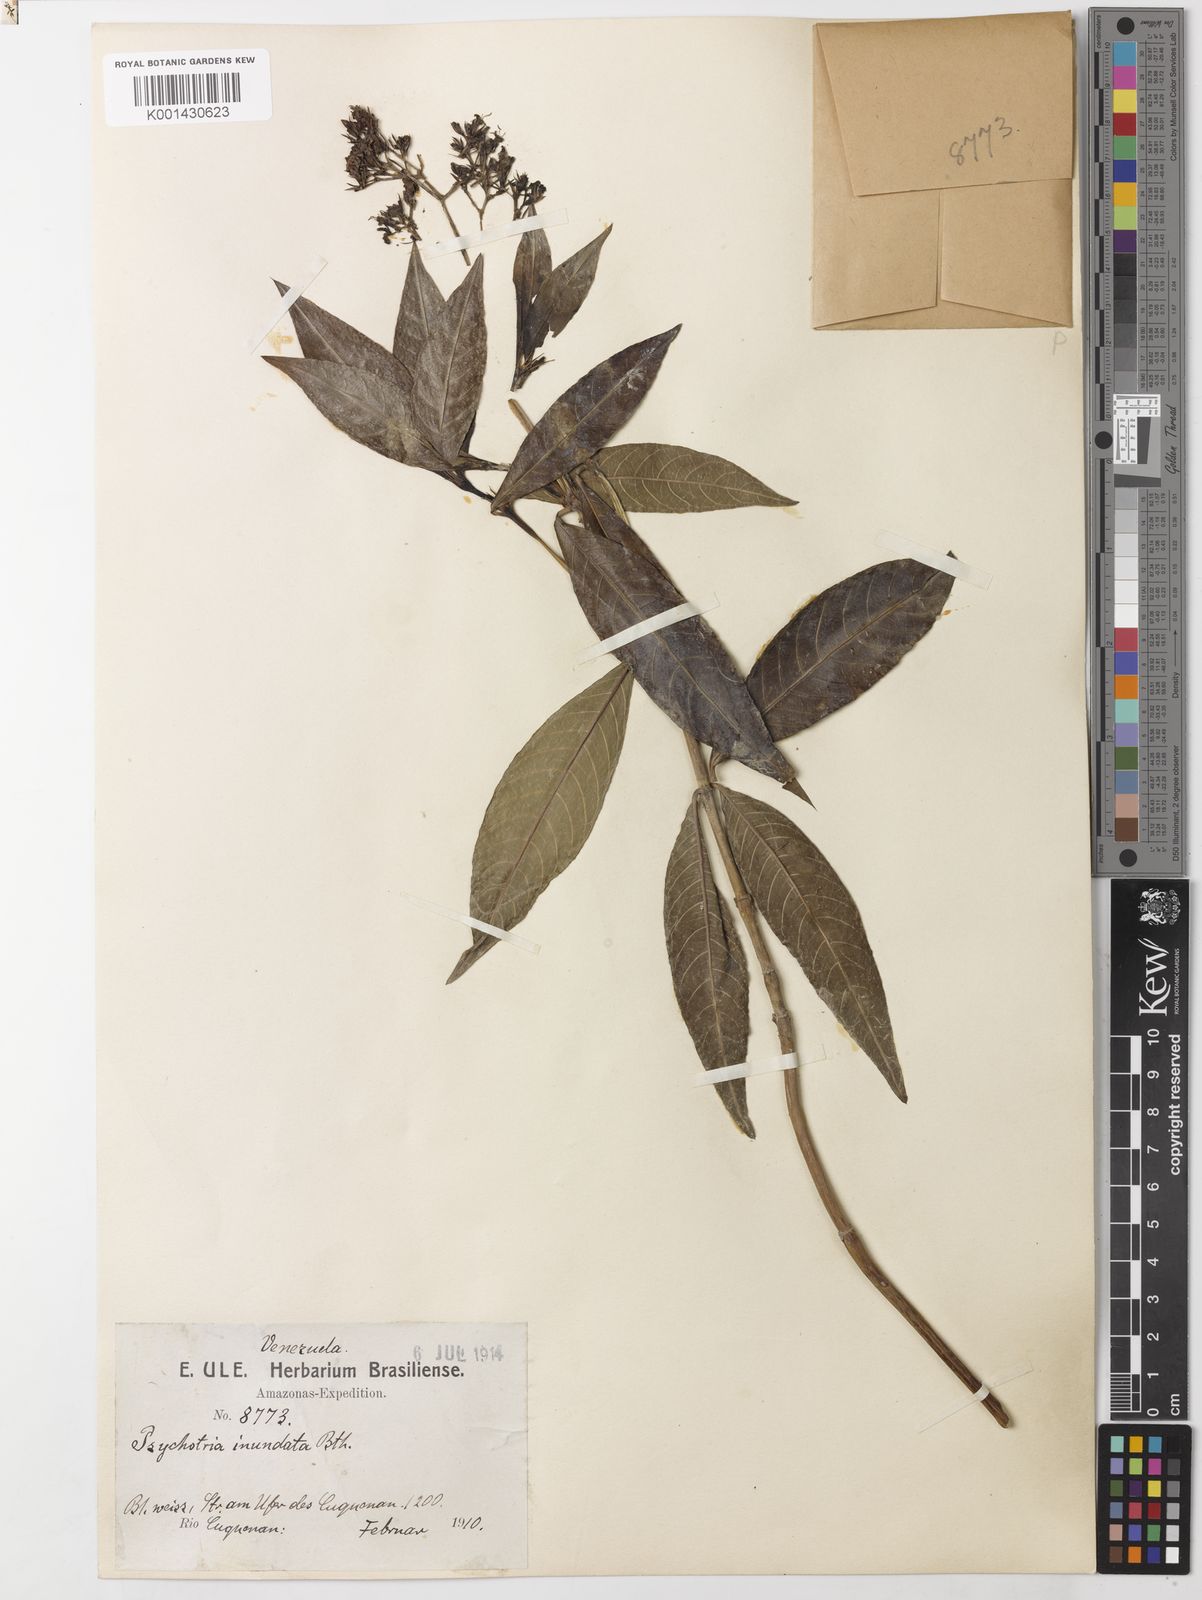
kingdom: Plantae
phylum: Tracheophyta
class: Magnoliopsida
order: Gentianales
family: Rubiaceae
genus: Palicourea
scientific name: Palicourea violacea
